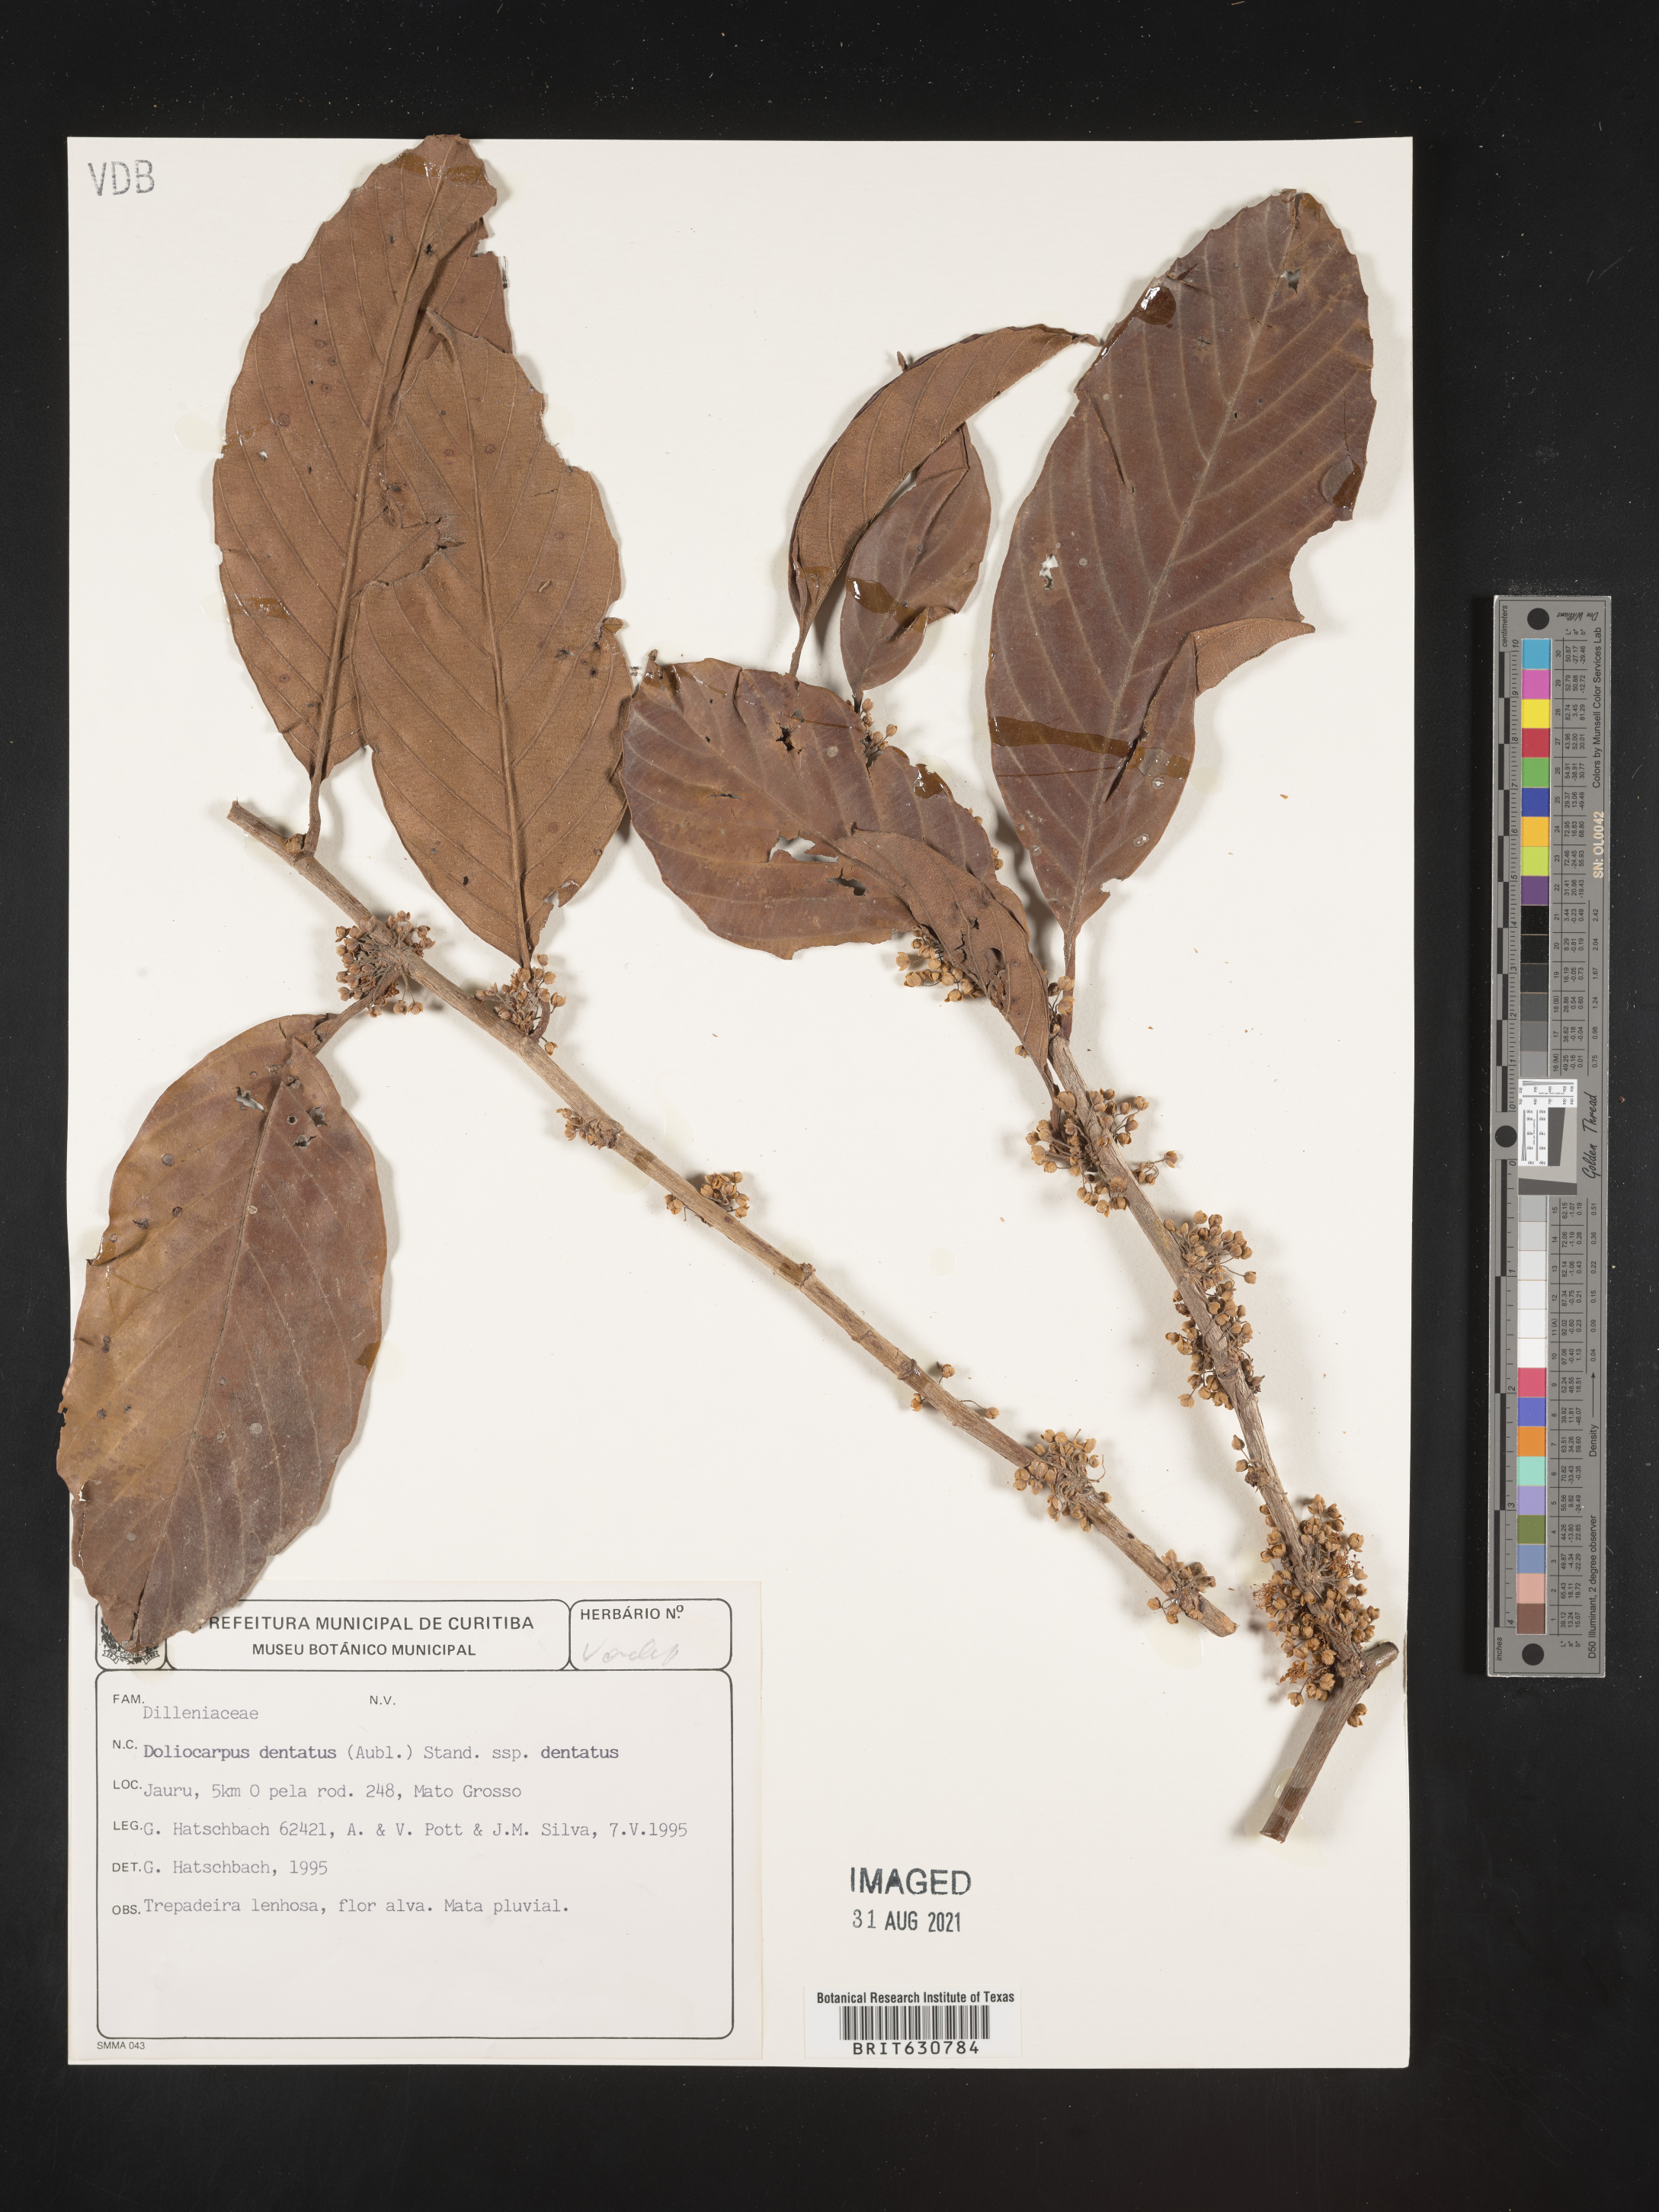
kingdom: Plantae
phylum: Tracheophyta
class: Magnoliopsida
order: Dilleniales
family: Dilleniaceae
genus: Doliocarpus
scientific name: Doliocarpus
